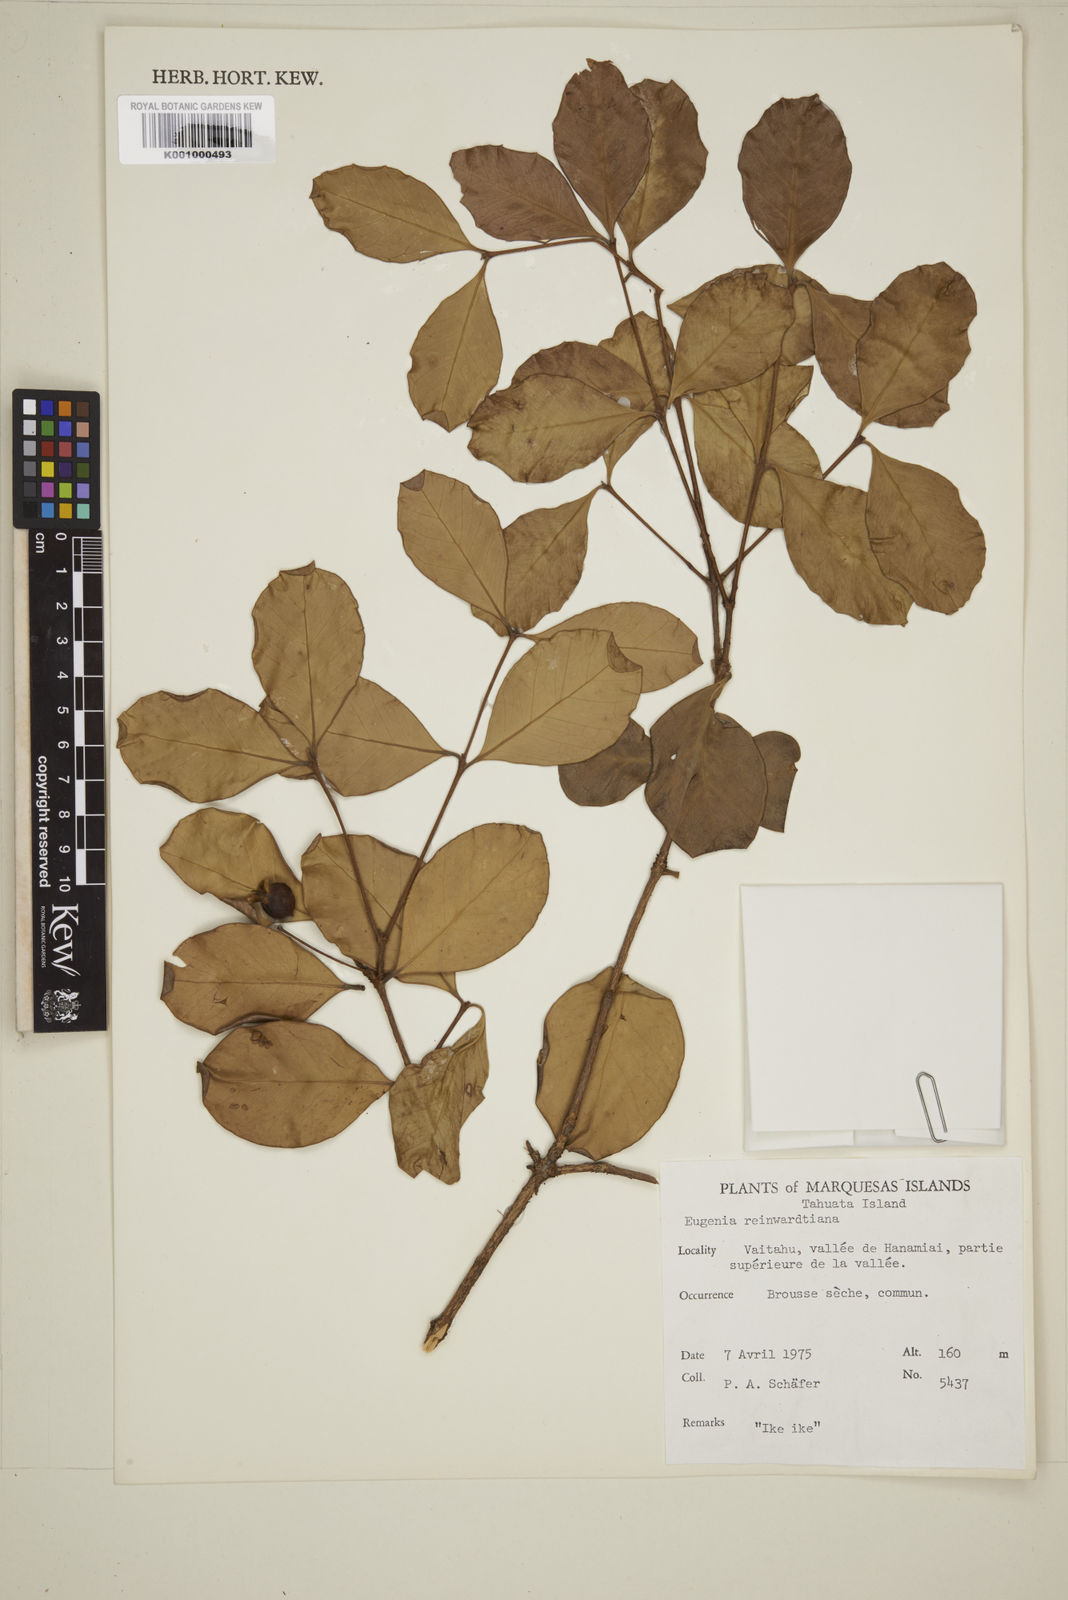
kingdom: Plantae
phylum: Tracheophyta
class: Magnoliopsida
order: Myrtales
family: Myrtaceae
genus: Eugenia
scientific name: Eugenia reinwardtiana
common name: Cedar bay-cherry
